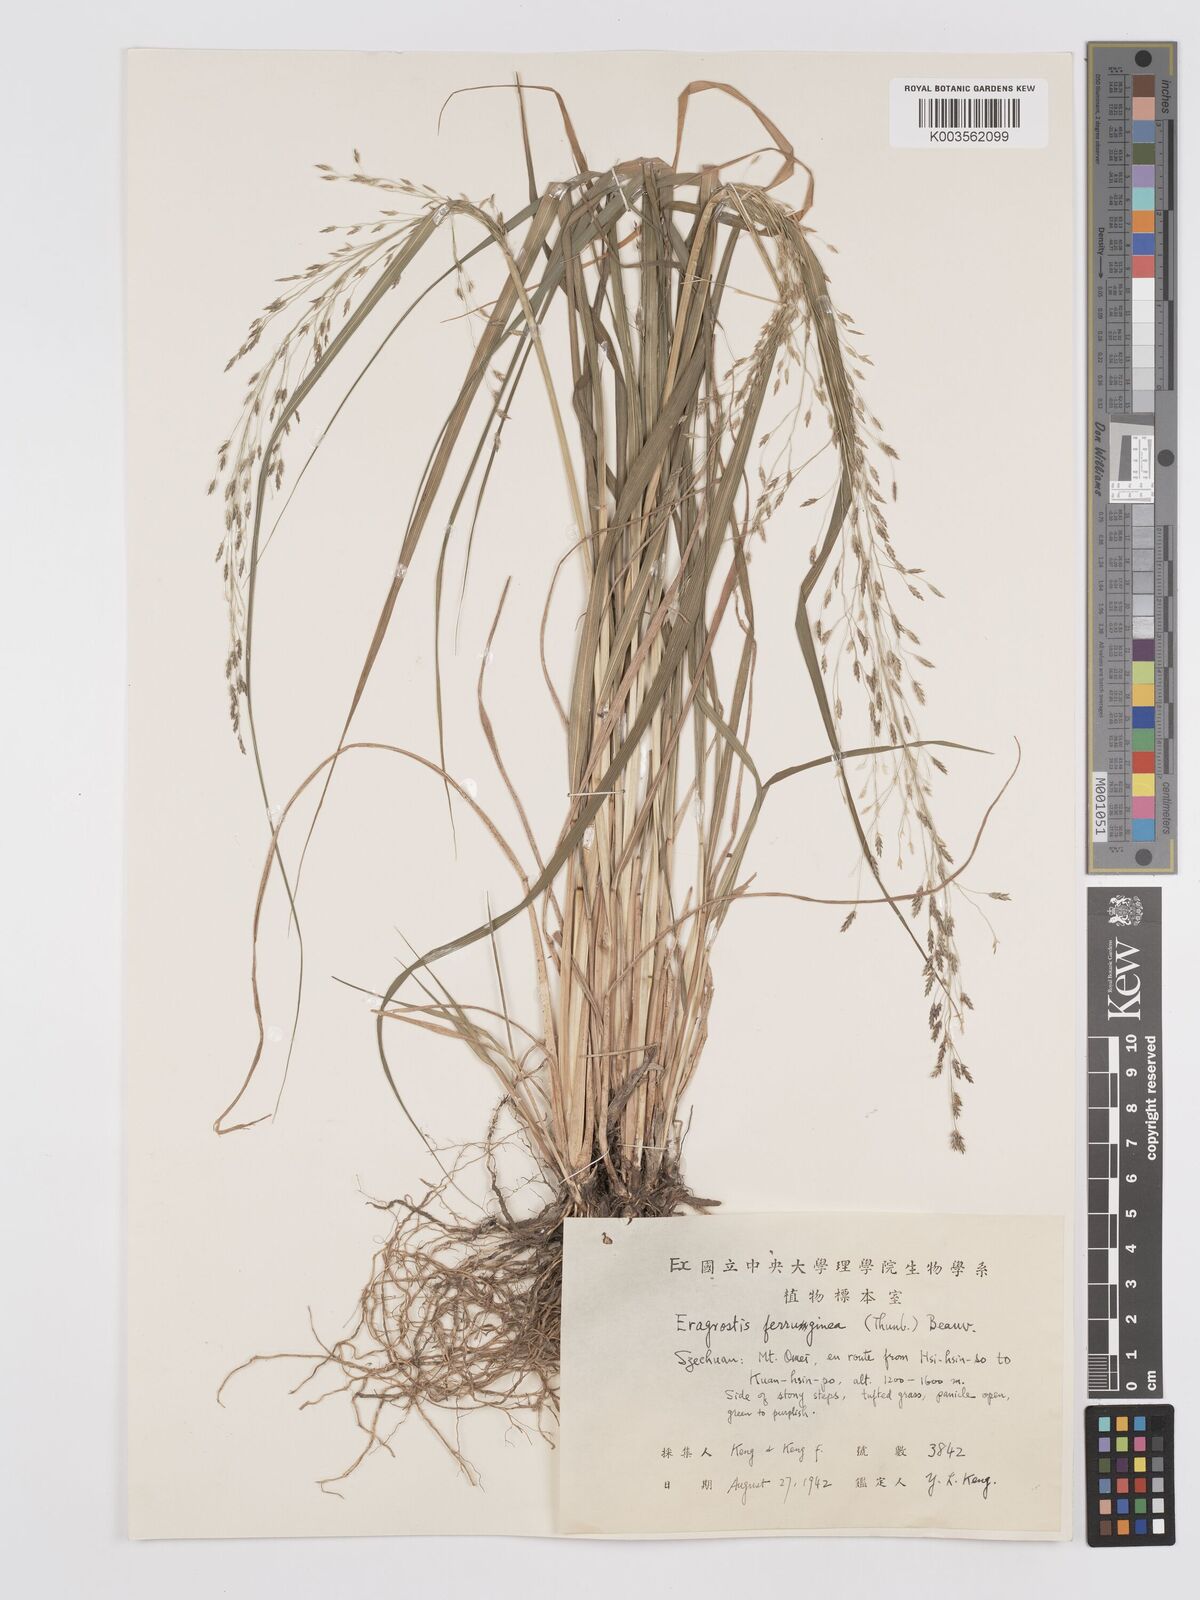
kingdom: Plantae
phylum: Tracheophyta
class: Liliopsida
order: Poales
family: Poaceae
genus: Eragrostis
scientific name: Eragrostis ferruginea
